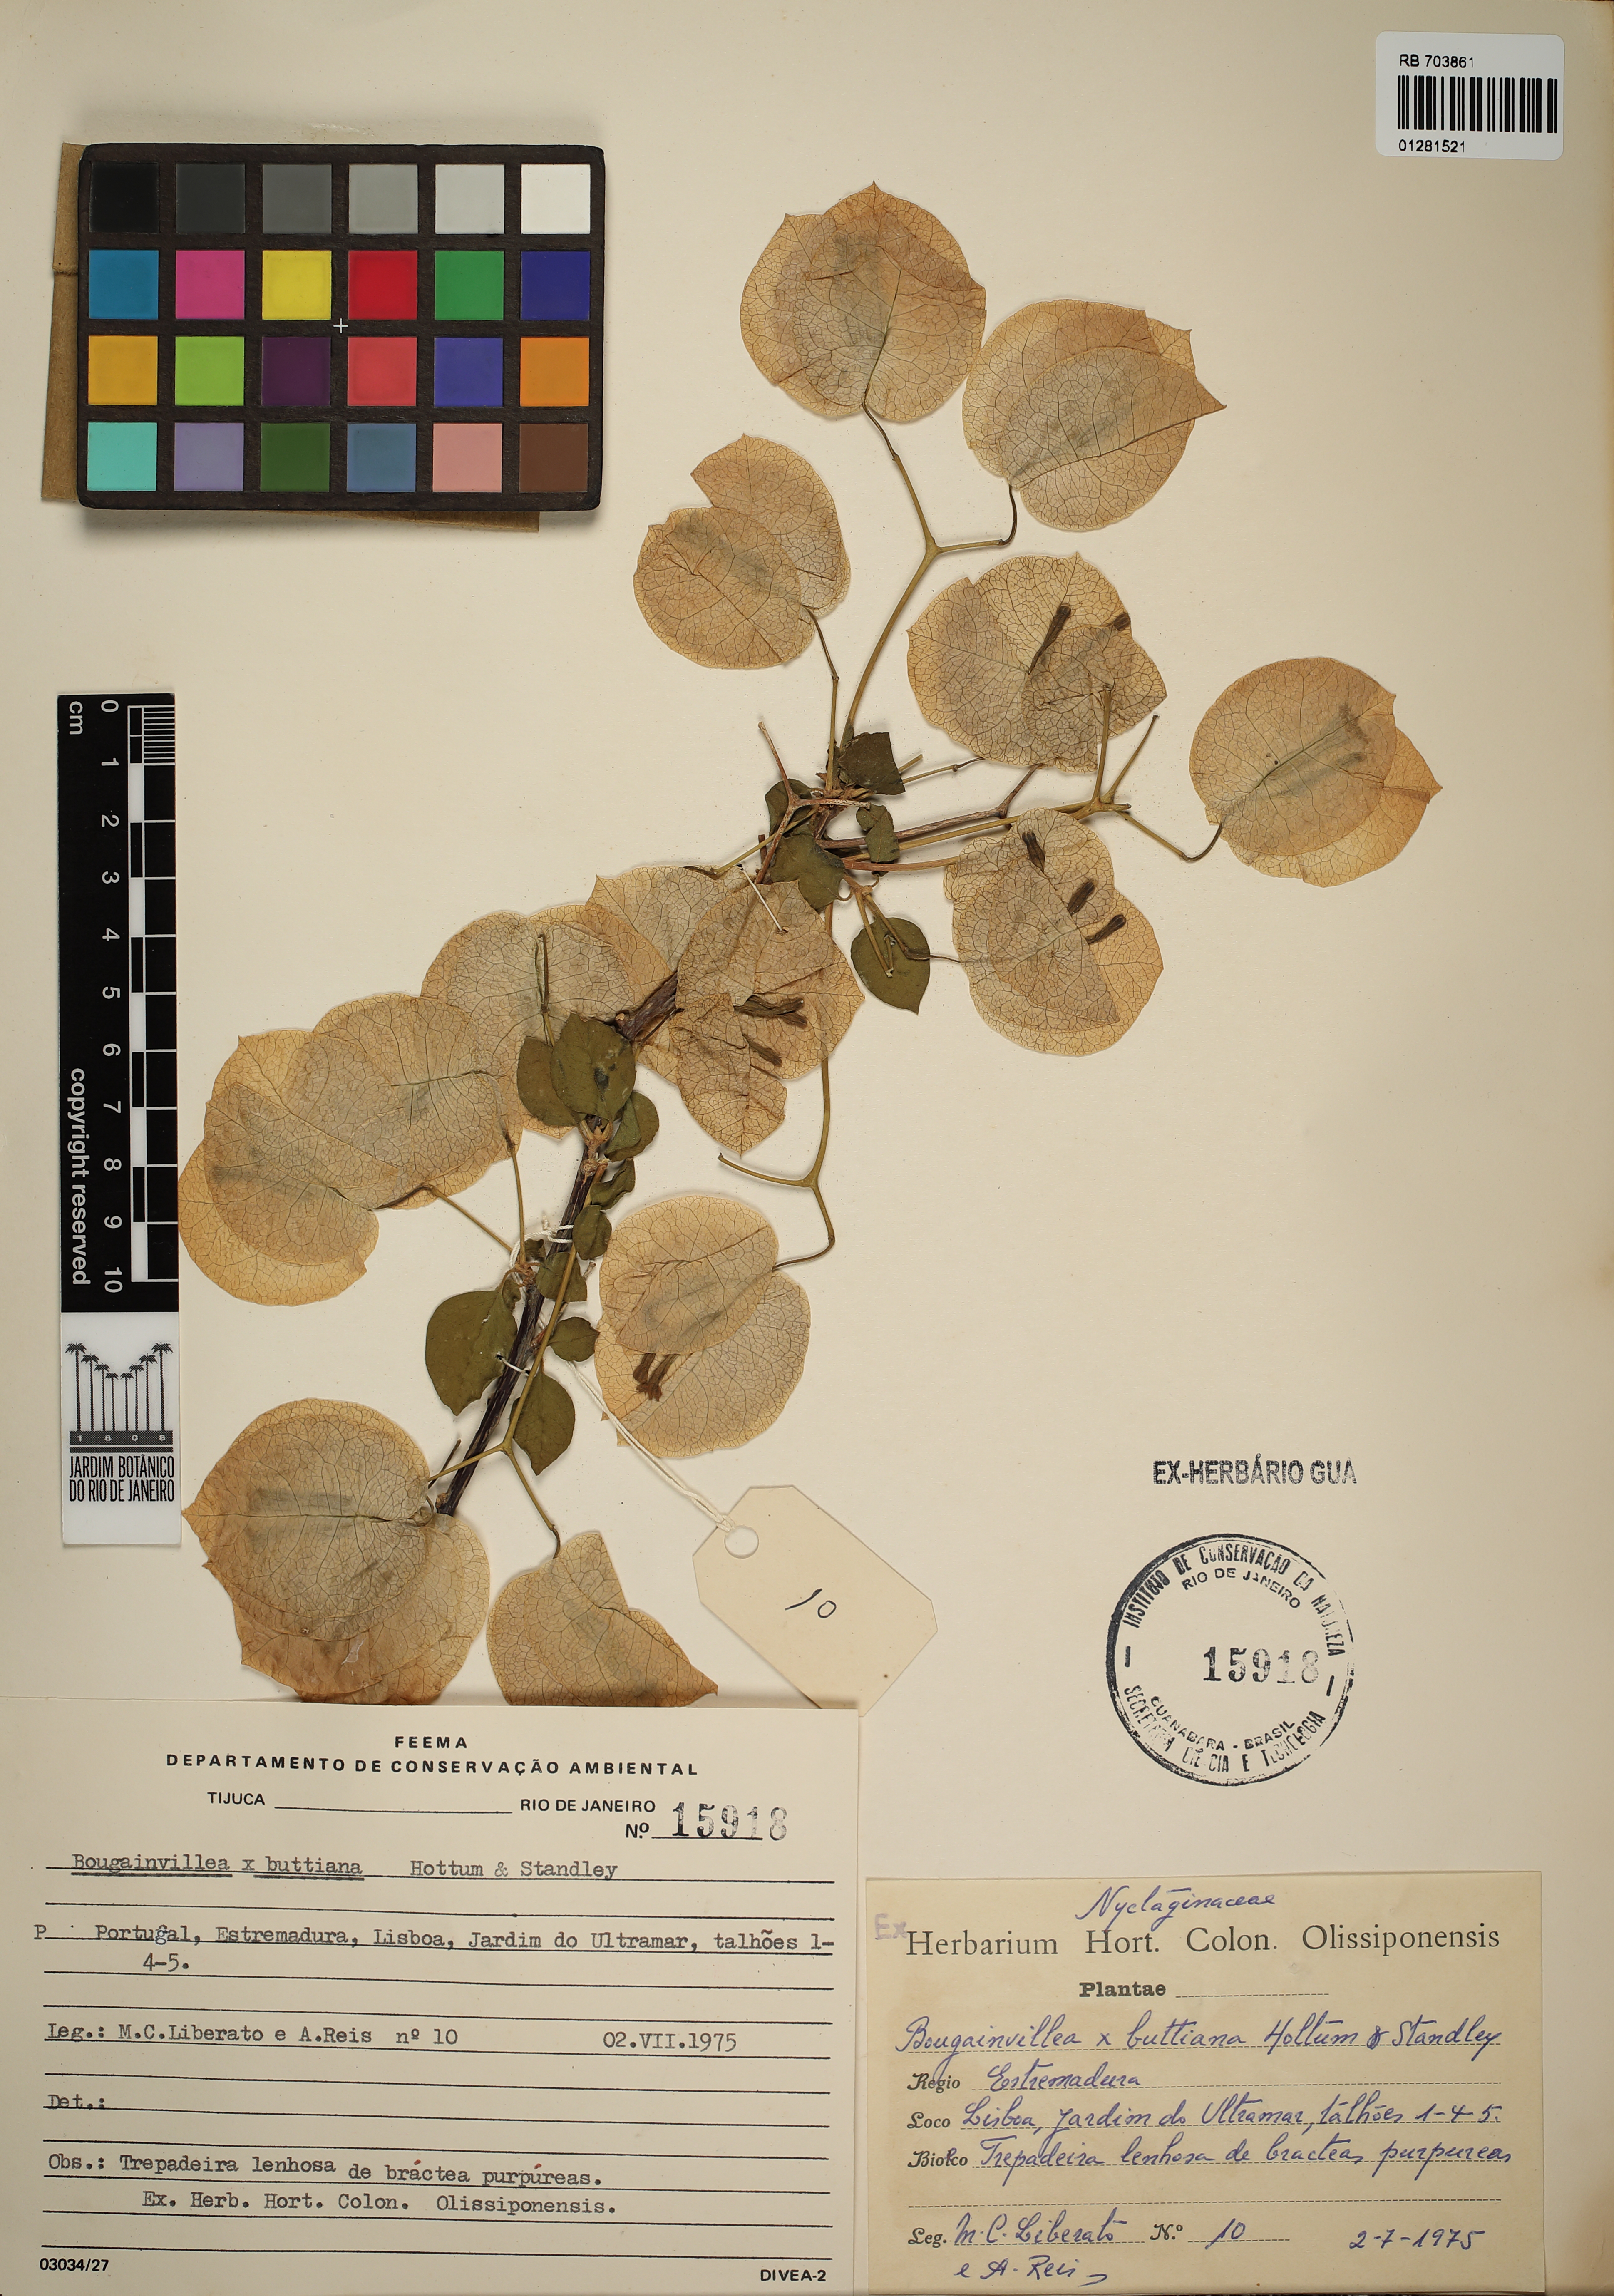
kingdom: Plantae
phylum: Tracheophyta
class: Magnoliopsida
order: Caryophyllales
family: Nyctaginaceae
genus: Bougainvillea
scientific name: Bougainvillea buttiana
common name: Bougainvillea
